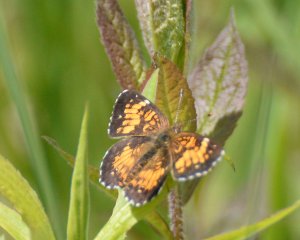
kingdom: Animalia
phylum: Arthropoda
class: Insecta
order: Lepidoptera
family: Nymphalidae
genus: Chlosyne
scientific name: Chlosyne harrisii
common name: Harris's Checkerspot
